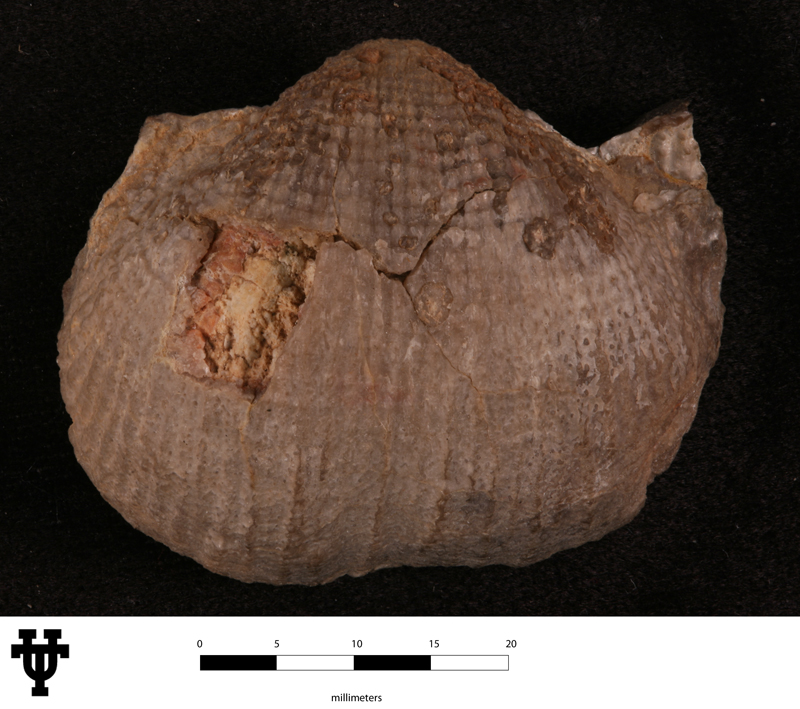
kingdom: Animalia
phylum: Brachiopoda
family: Dictyoclostidae
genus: Dasysaria
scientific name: Dasysaria Productus inca
